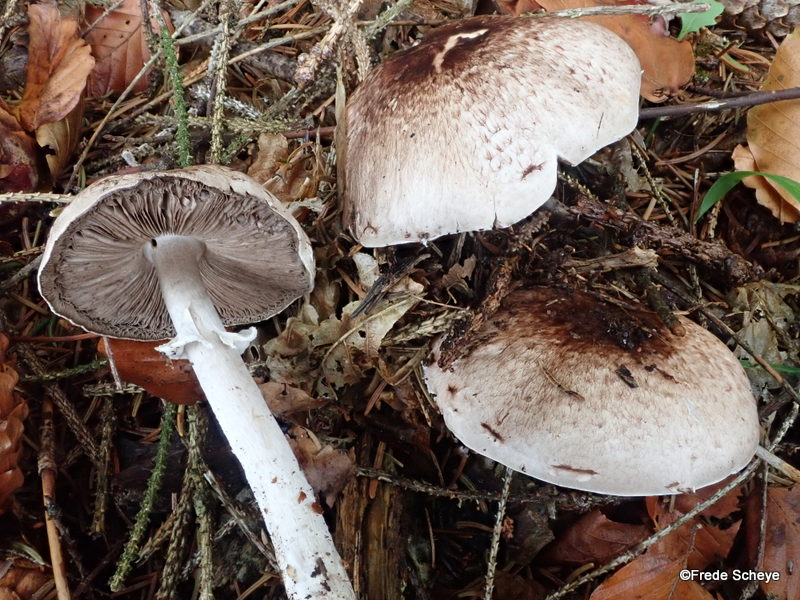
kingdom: Fungi
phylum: Basidiomycota
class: Agaricomycetes
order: Agaricales
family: Agaricaceae
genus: Agaricus
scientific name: Agaricus impudicus
